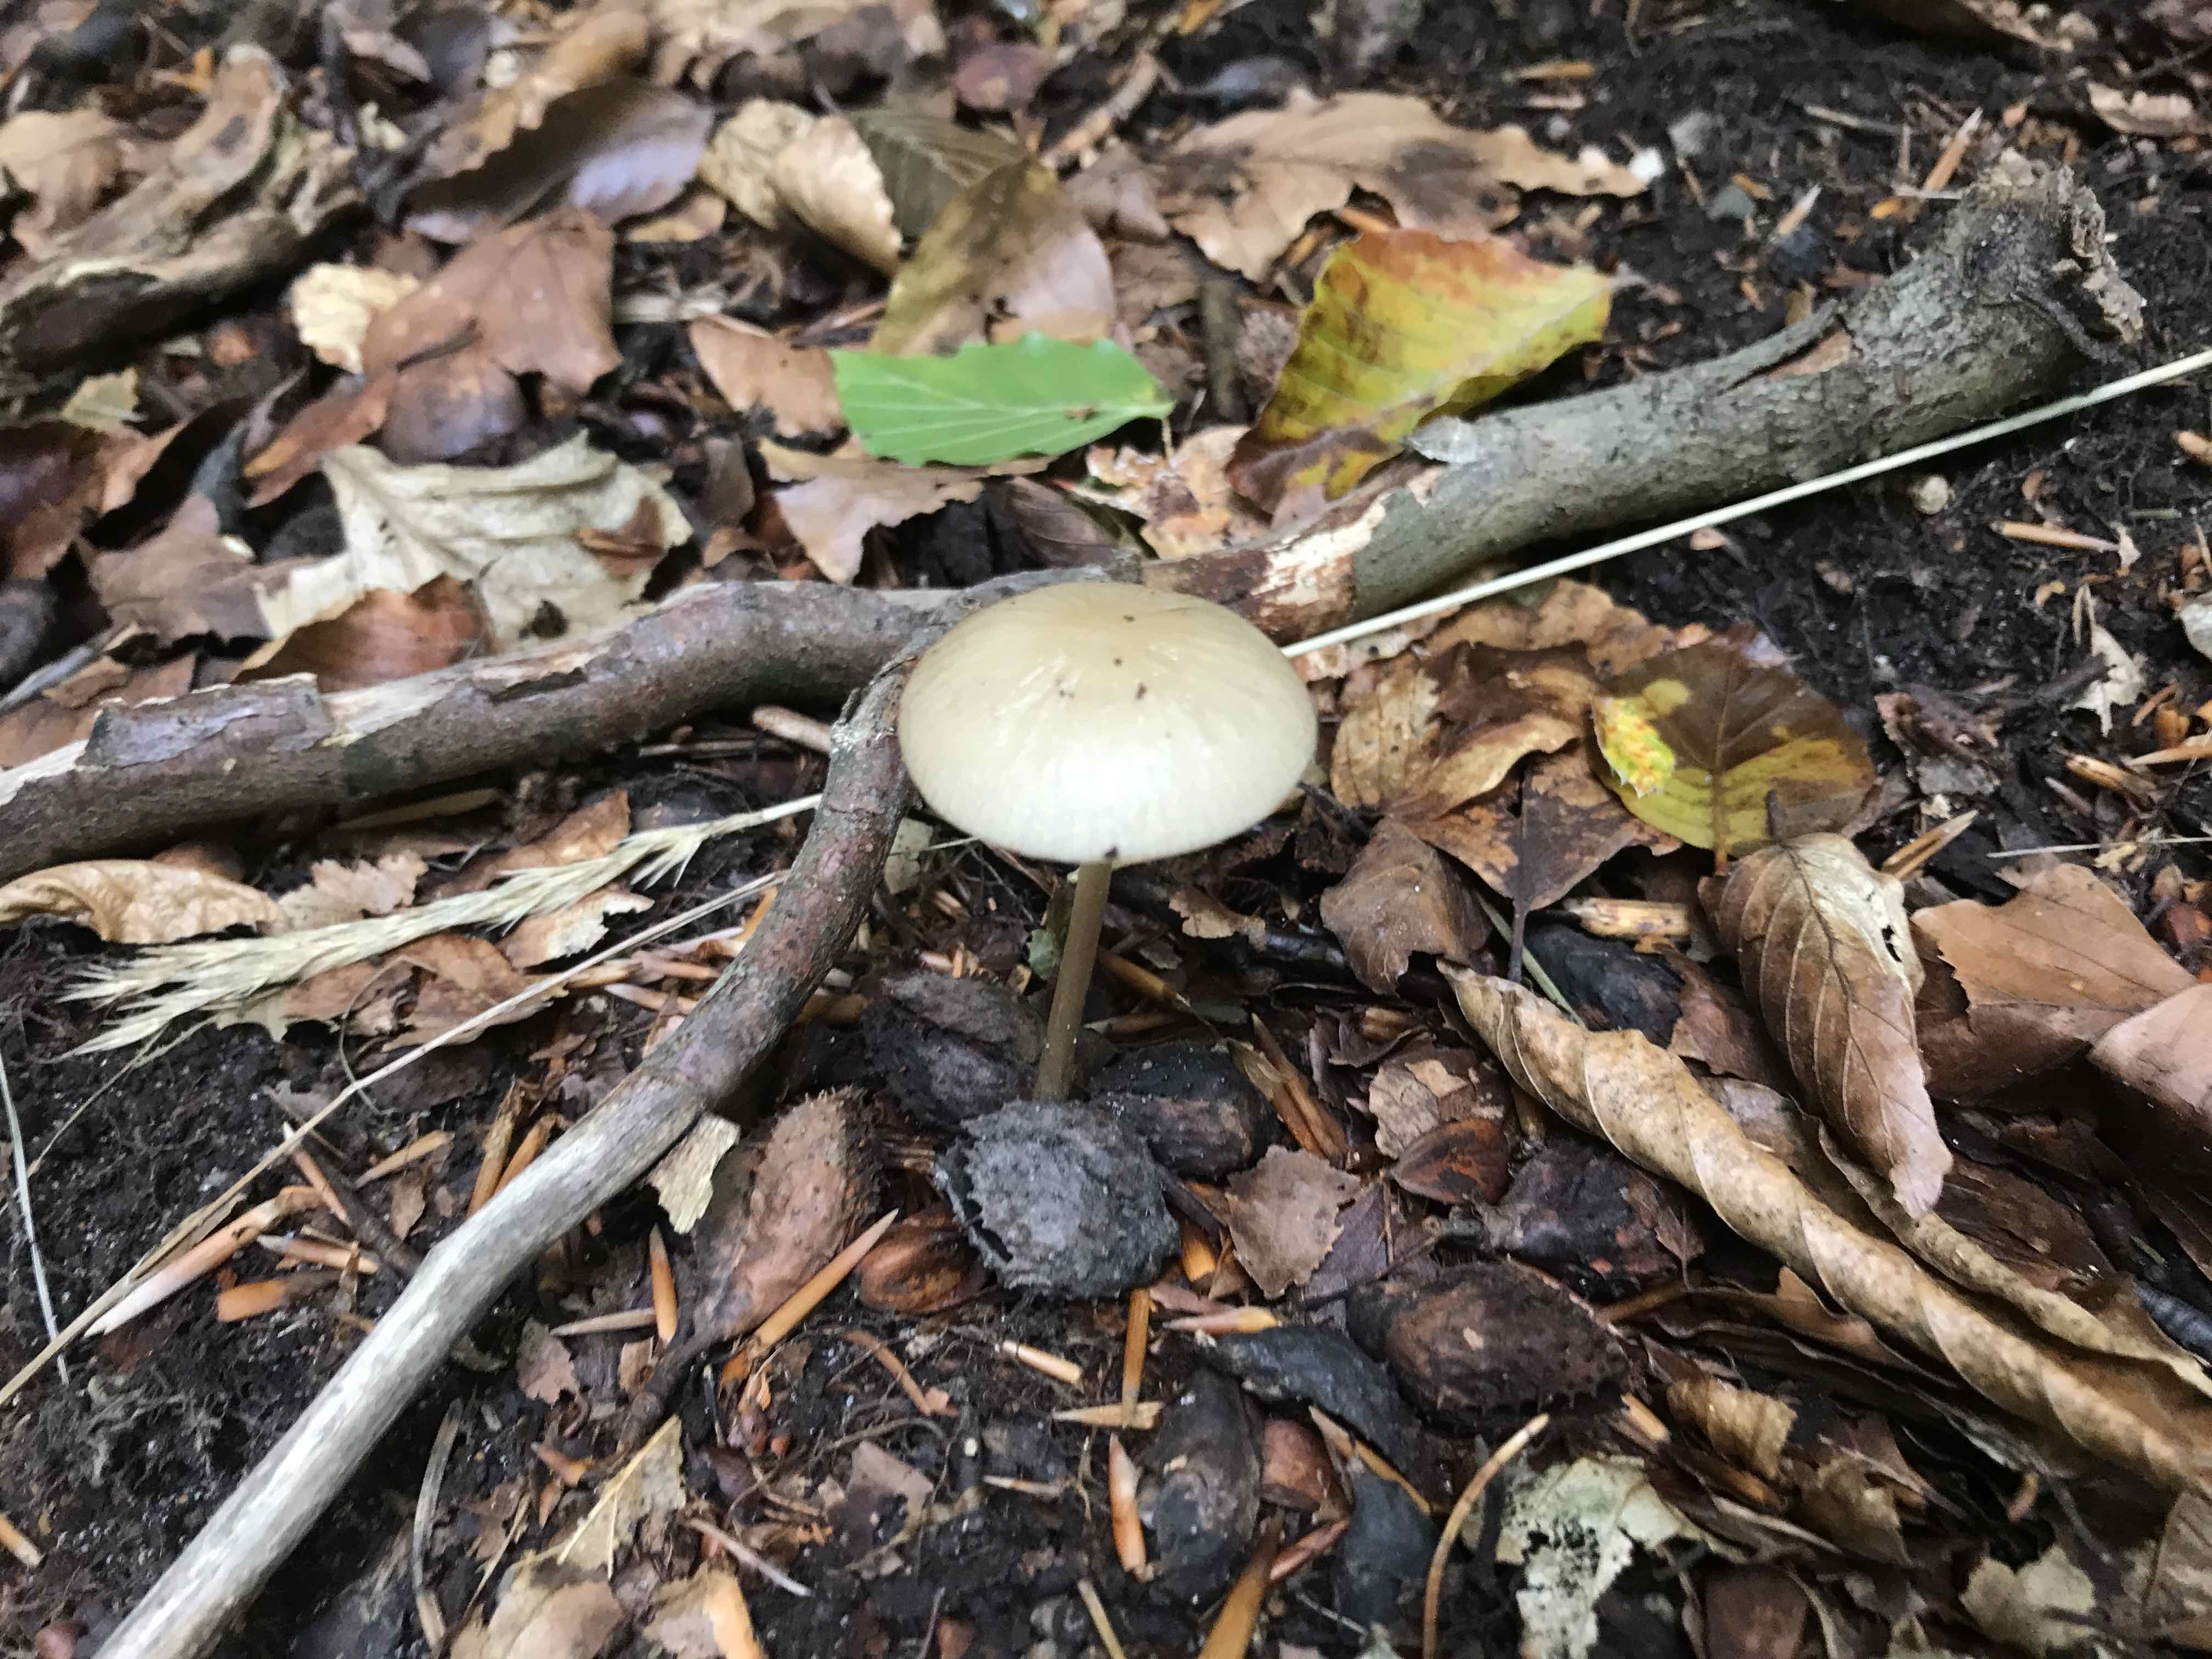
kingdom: Fungi
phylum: Basidiomycota
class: Agaricomycetes
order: Agaricales
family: Physalacriaceae
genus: Hymenopellis
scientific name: Hymenopellis radicata
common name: almindelig pælerodshat
